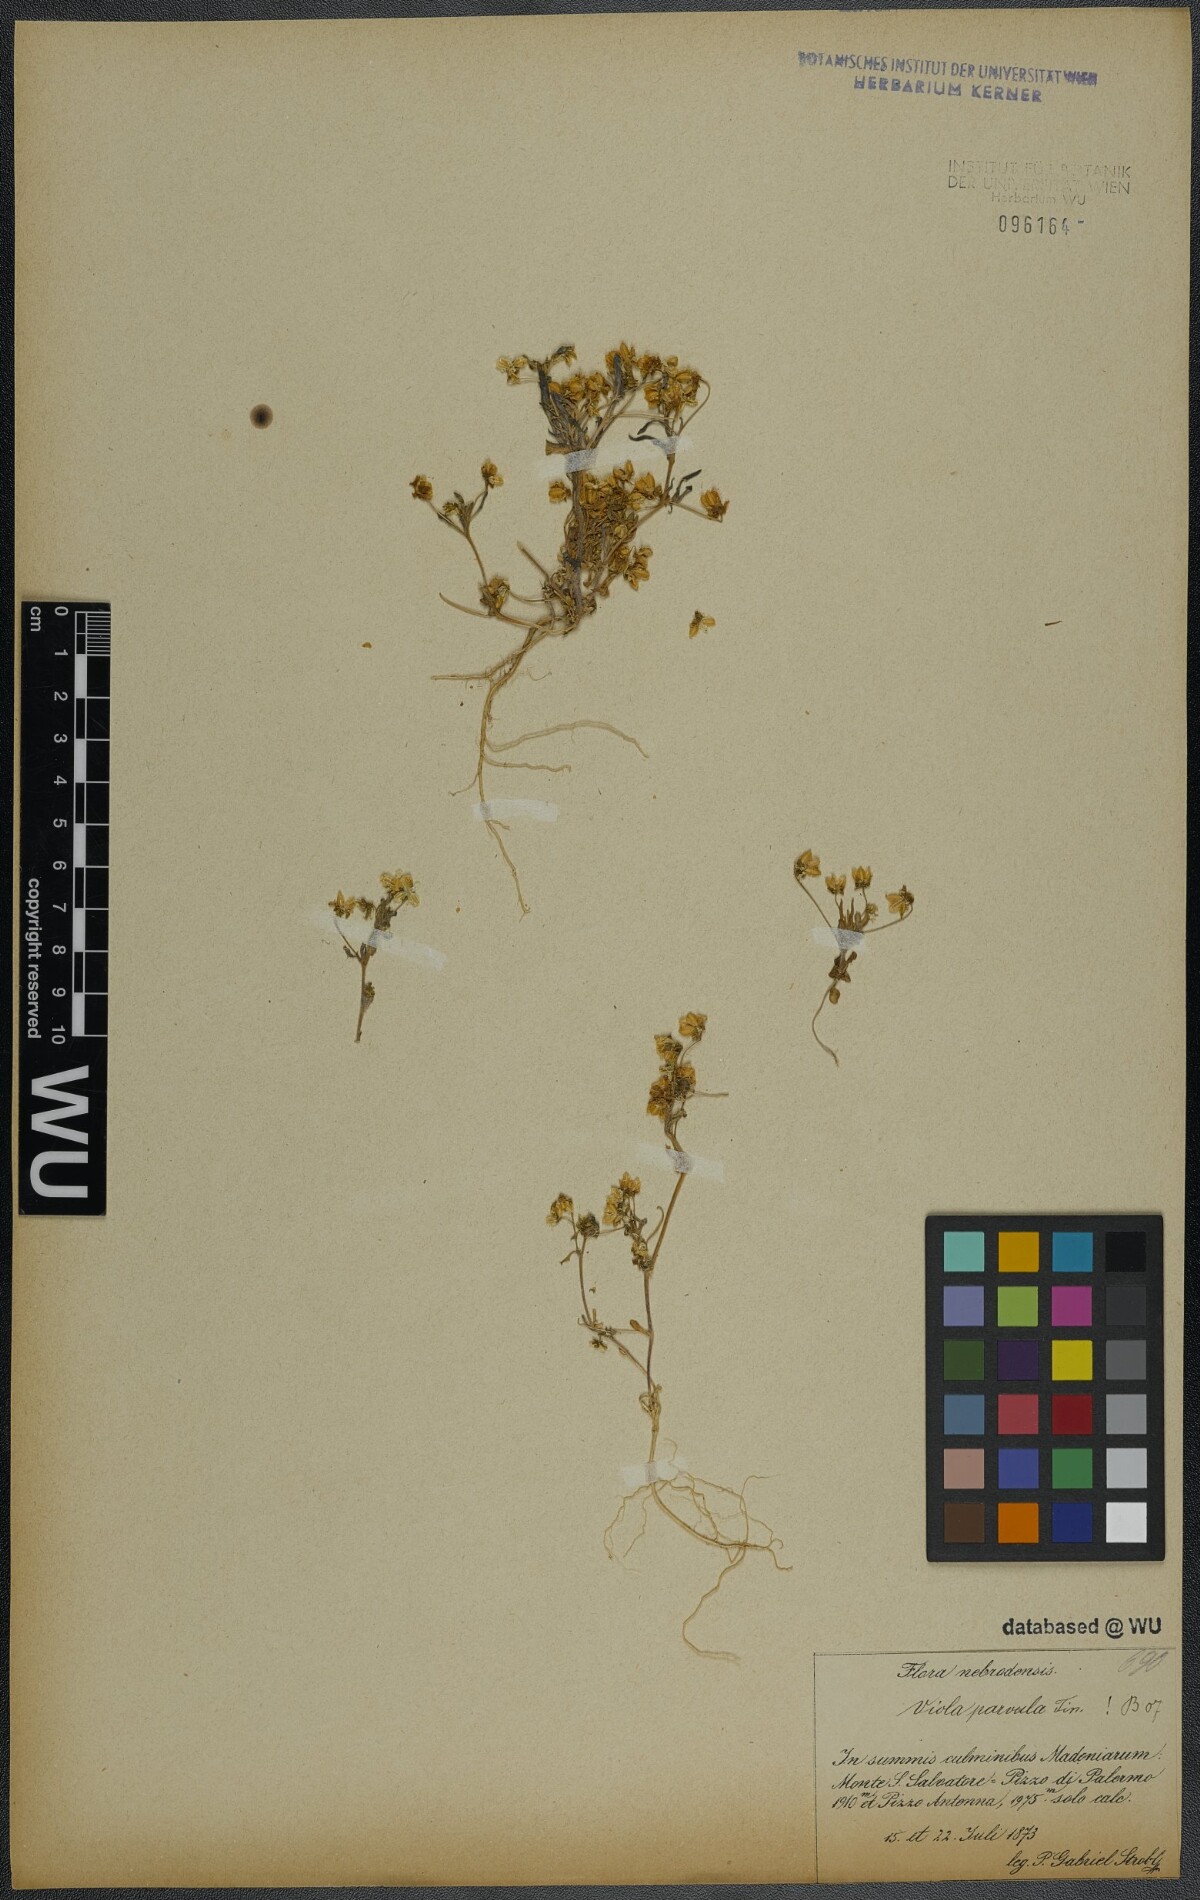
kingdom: Plantae
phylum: Tracheophyta
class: Magnoliopsida
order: Malpighiales
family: Violaceae
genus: Viola
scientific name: Viola parvula
